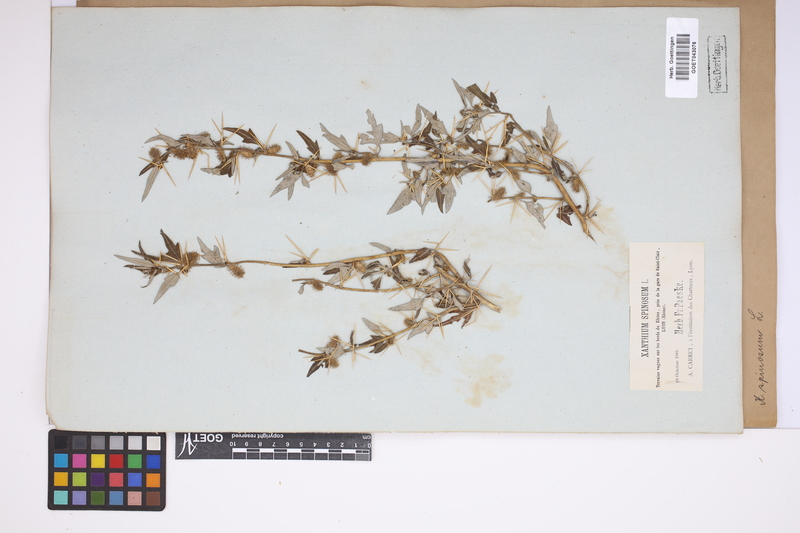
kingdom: Plantae
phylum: Tracheophyta
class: Magnoliopsida
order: Asterales
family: Asteraceae
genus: Xanthium
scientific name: Xanthium spinosum
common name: Spiny cocklebur
